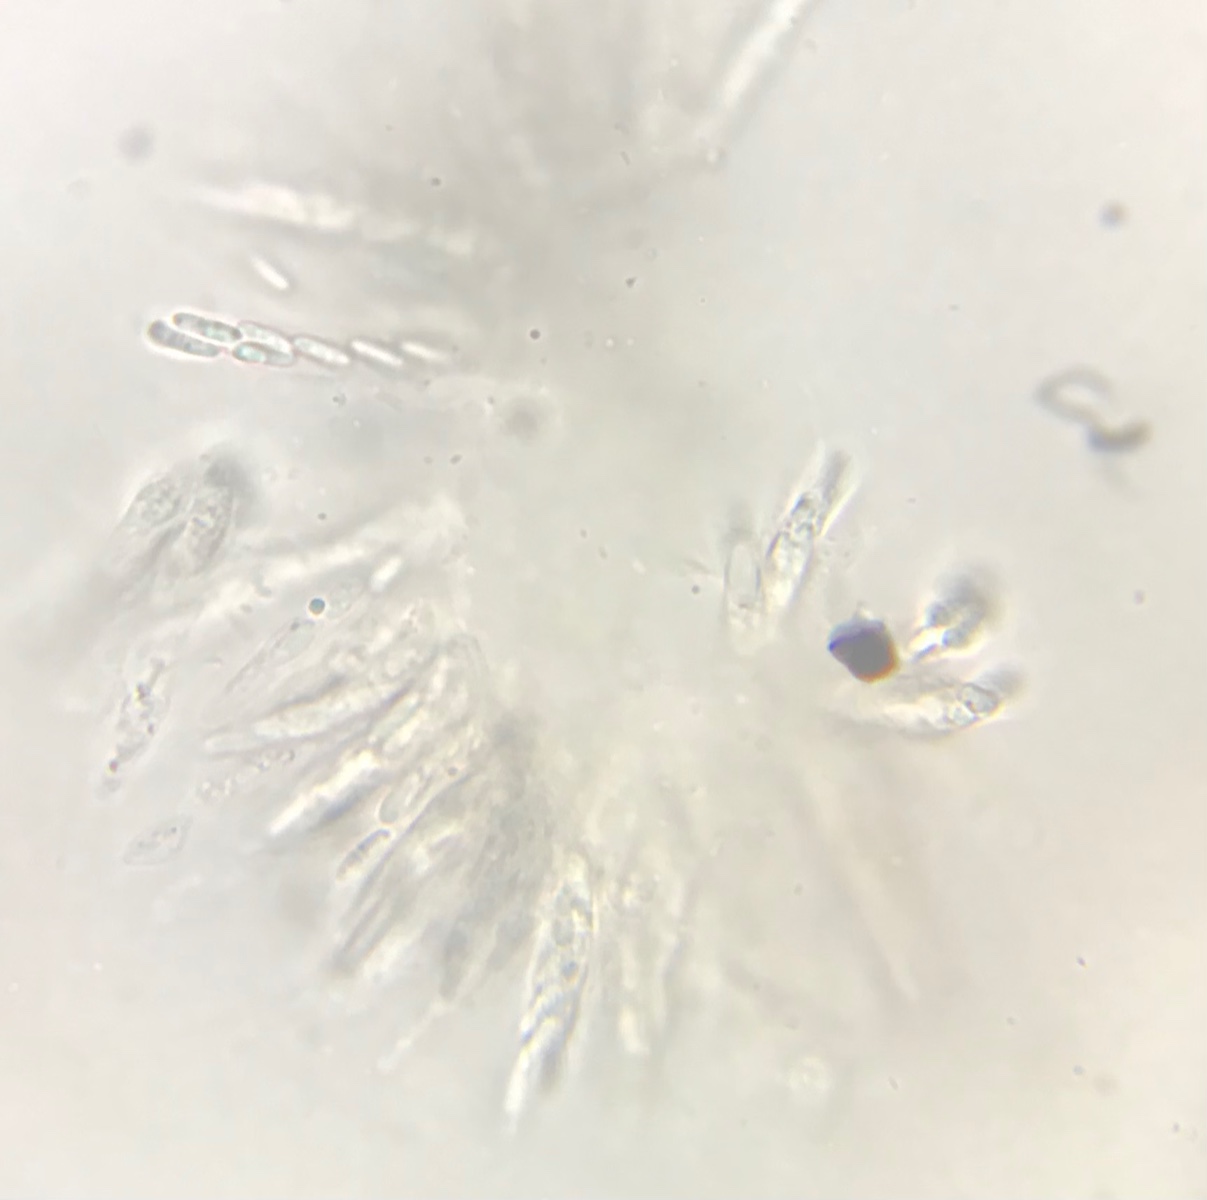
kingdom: Fungi
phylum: Ascomycota
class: Sordariomycetes
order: Xylariales
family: Xylariaceae
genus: Rosellinia
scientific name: Rosellinia
